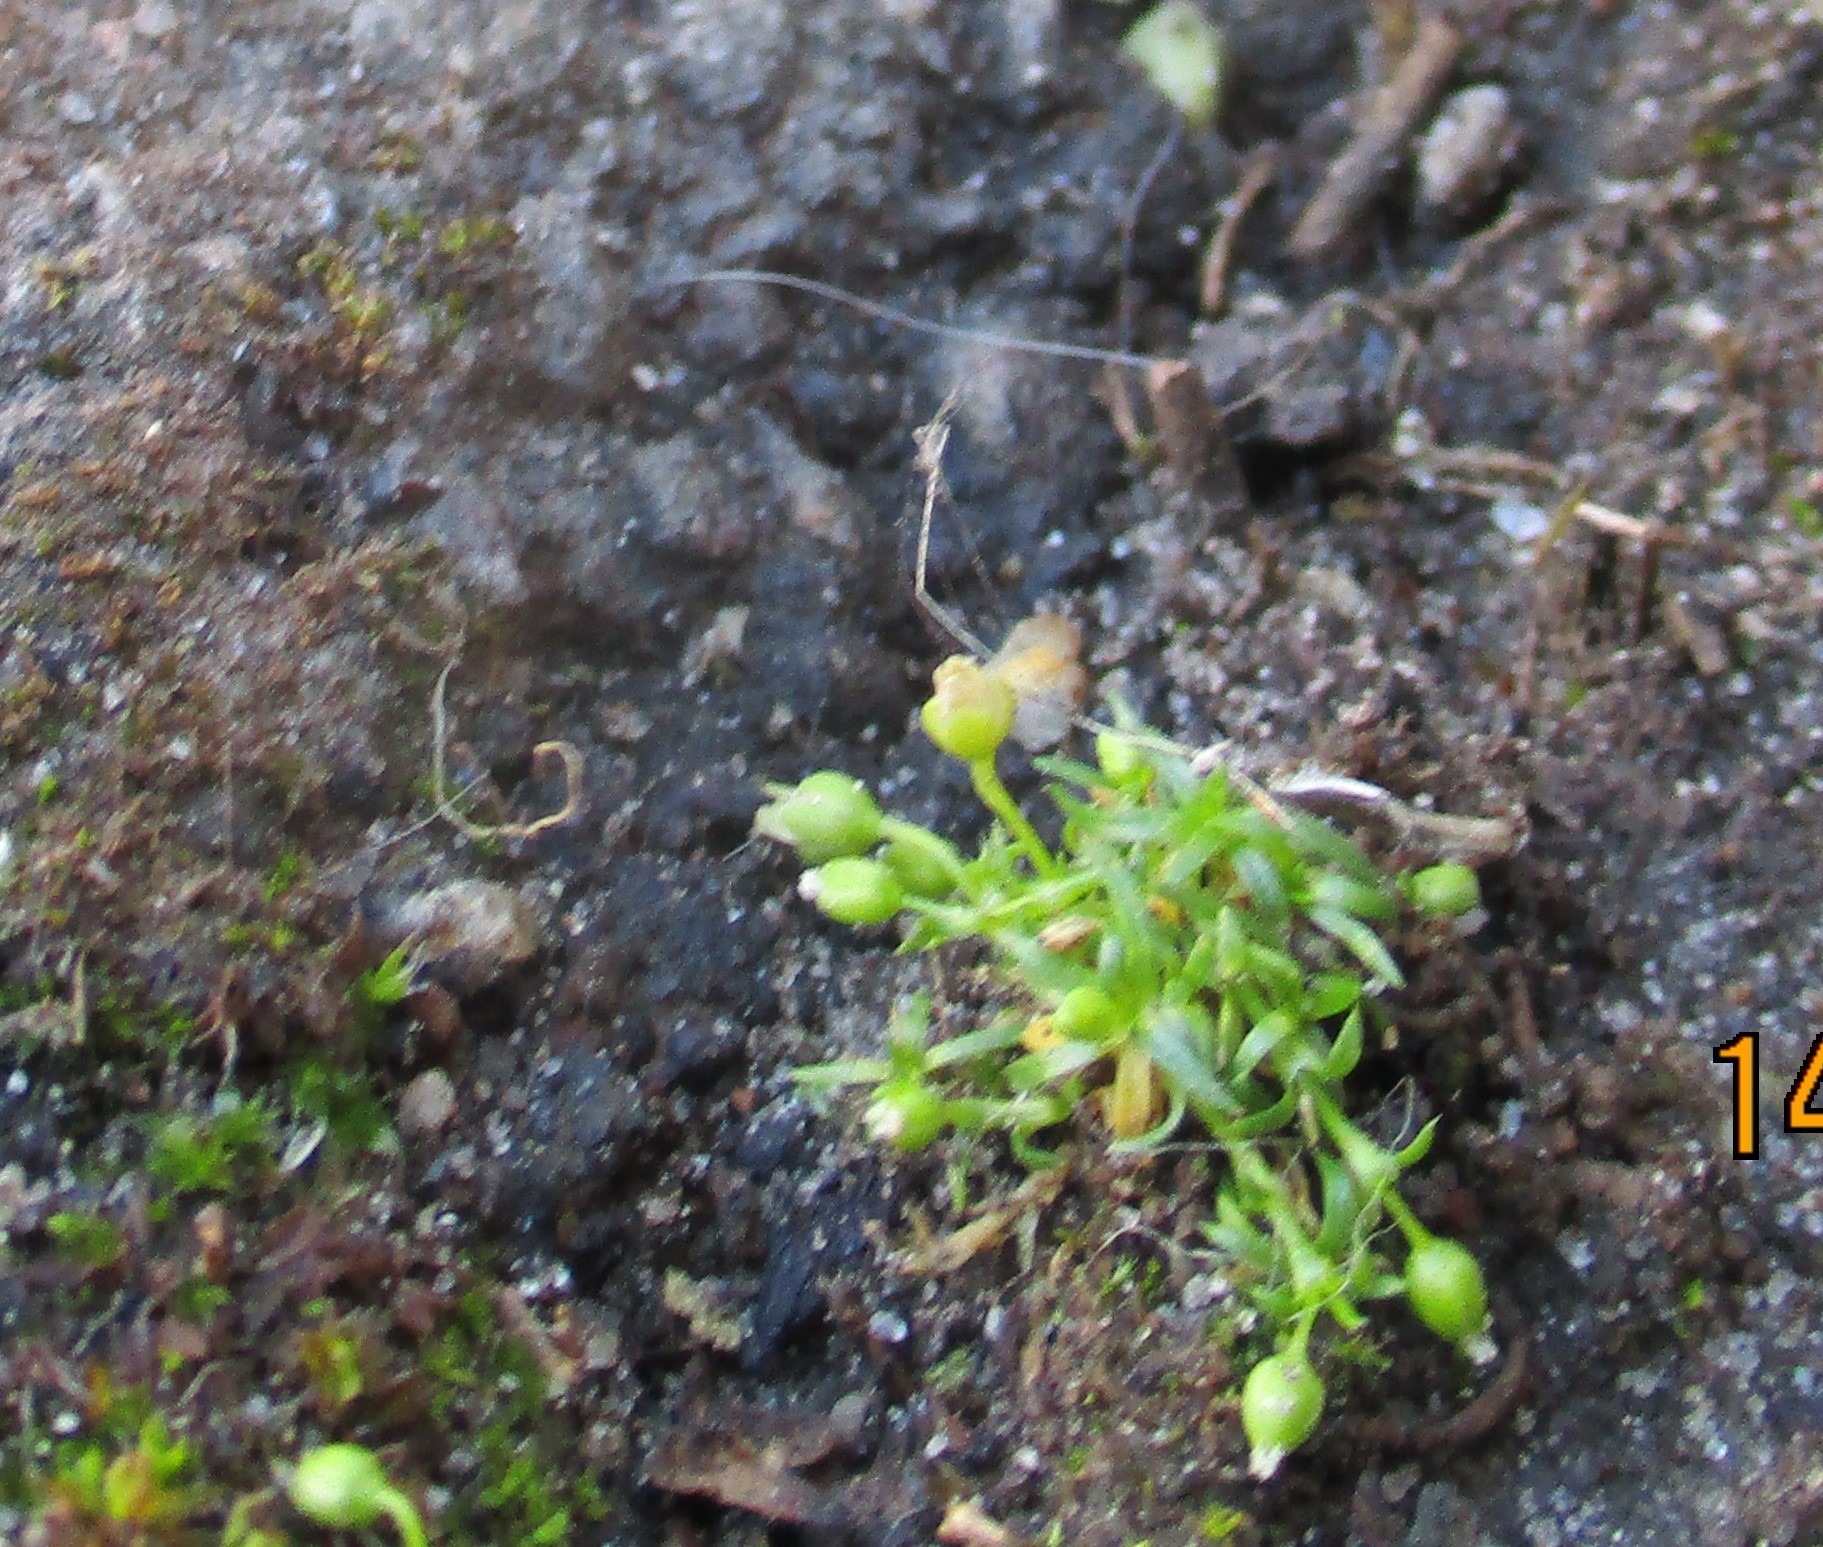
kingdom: Plantae
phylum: Tracheophyta
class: Magnoliopsida
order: Caryophyllales
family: Caryophyllaceae
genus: Sagina
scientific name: Sagina procumbens
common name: Almindelig firling
